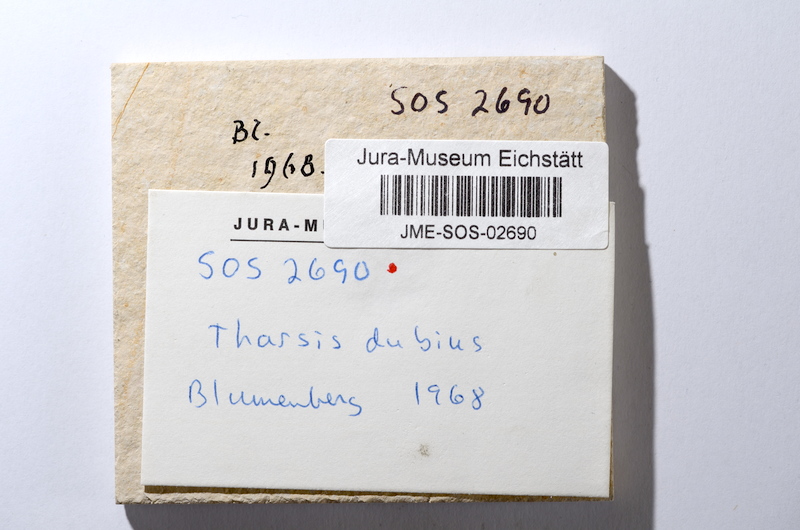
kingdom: Animalia
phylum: Chordata
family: Ascalaboidae
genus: Tharsis
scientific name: Tharsis dubius
